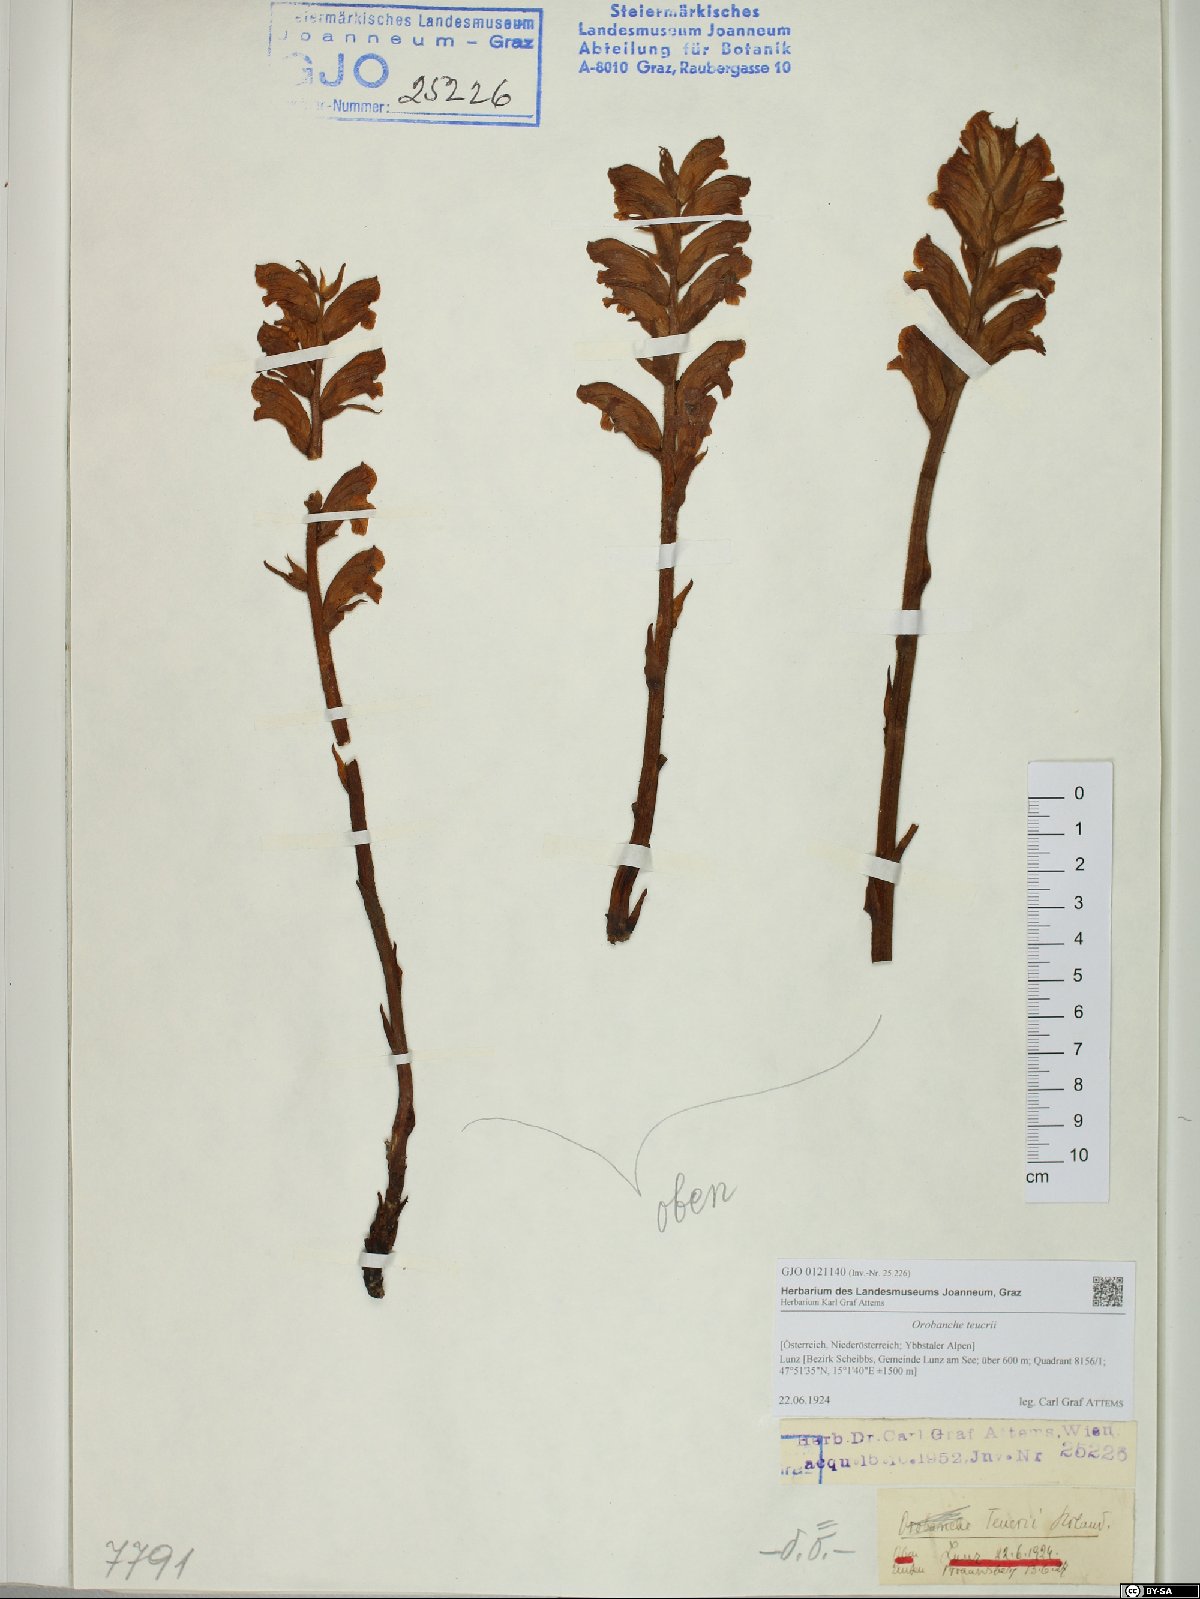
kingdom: Plantae
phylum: Tracheophyta
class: Magnoliopsida
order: Lamiales
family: Orobanchaceae
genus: Orobanche
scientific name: Orobanche teucrii
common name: Germander broomrape
